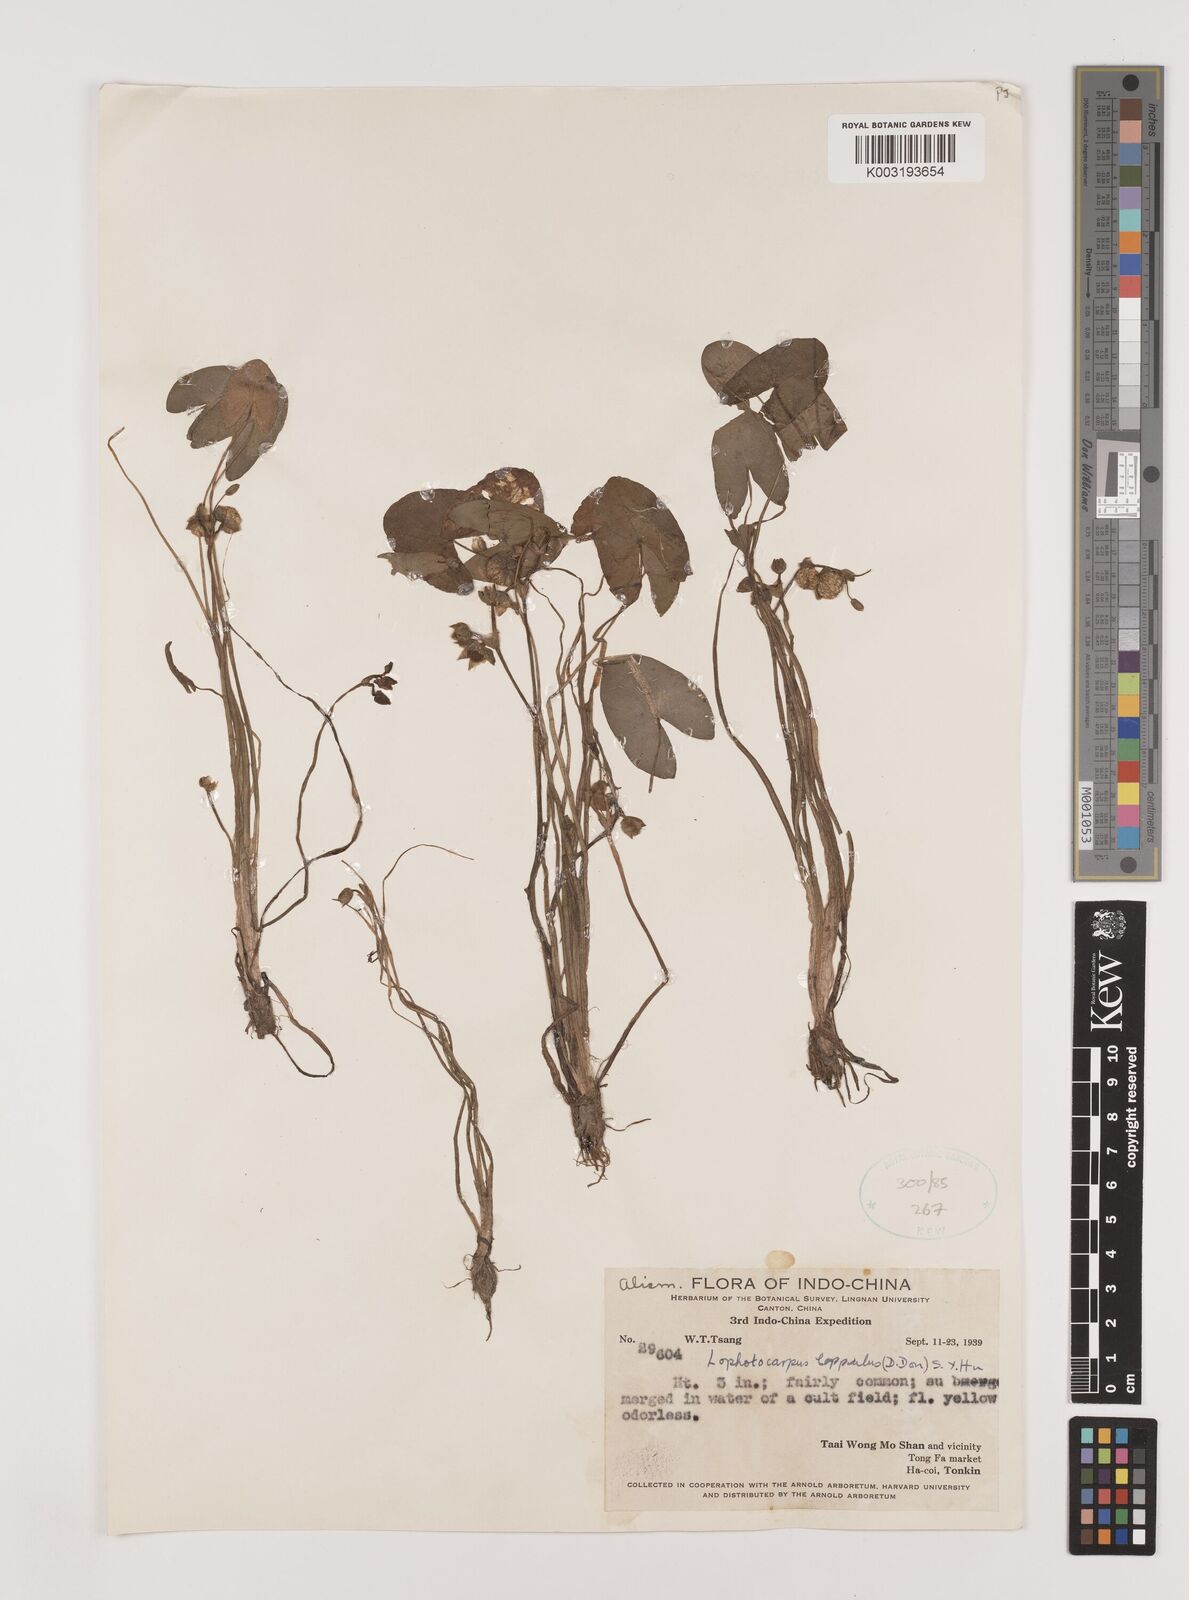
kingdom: Plantae
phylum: Tracheophyta
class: Liliopsida
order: Alismatales
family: Alismataceae
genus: Sagittaria
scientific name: Sagittaria guayanensis
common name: Guyanese arrowhead
